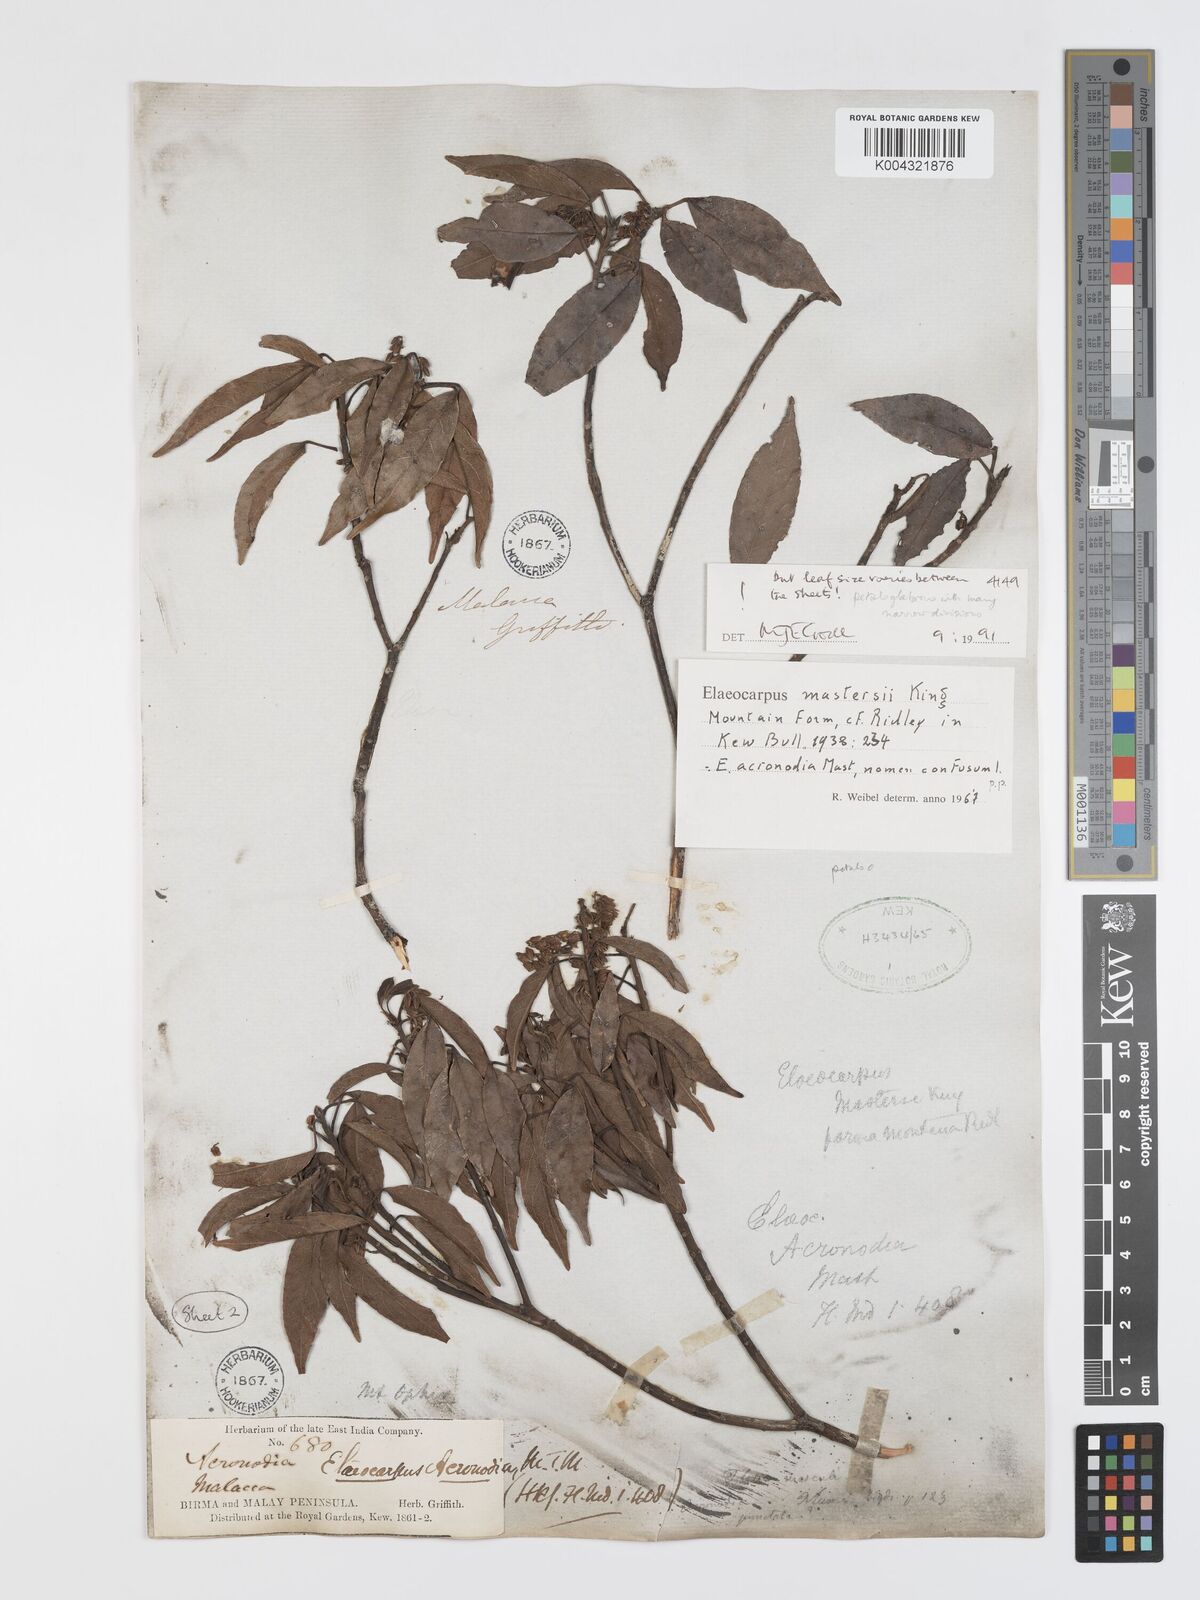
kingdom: Plantae
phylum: Tracheophyta
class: Magnoliopsida
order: Oxalidales
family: Elaeocarpaceae
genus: Elaeocarpus
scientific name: Elaeocarpus mastersii
